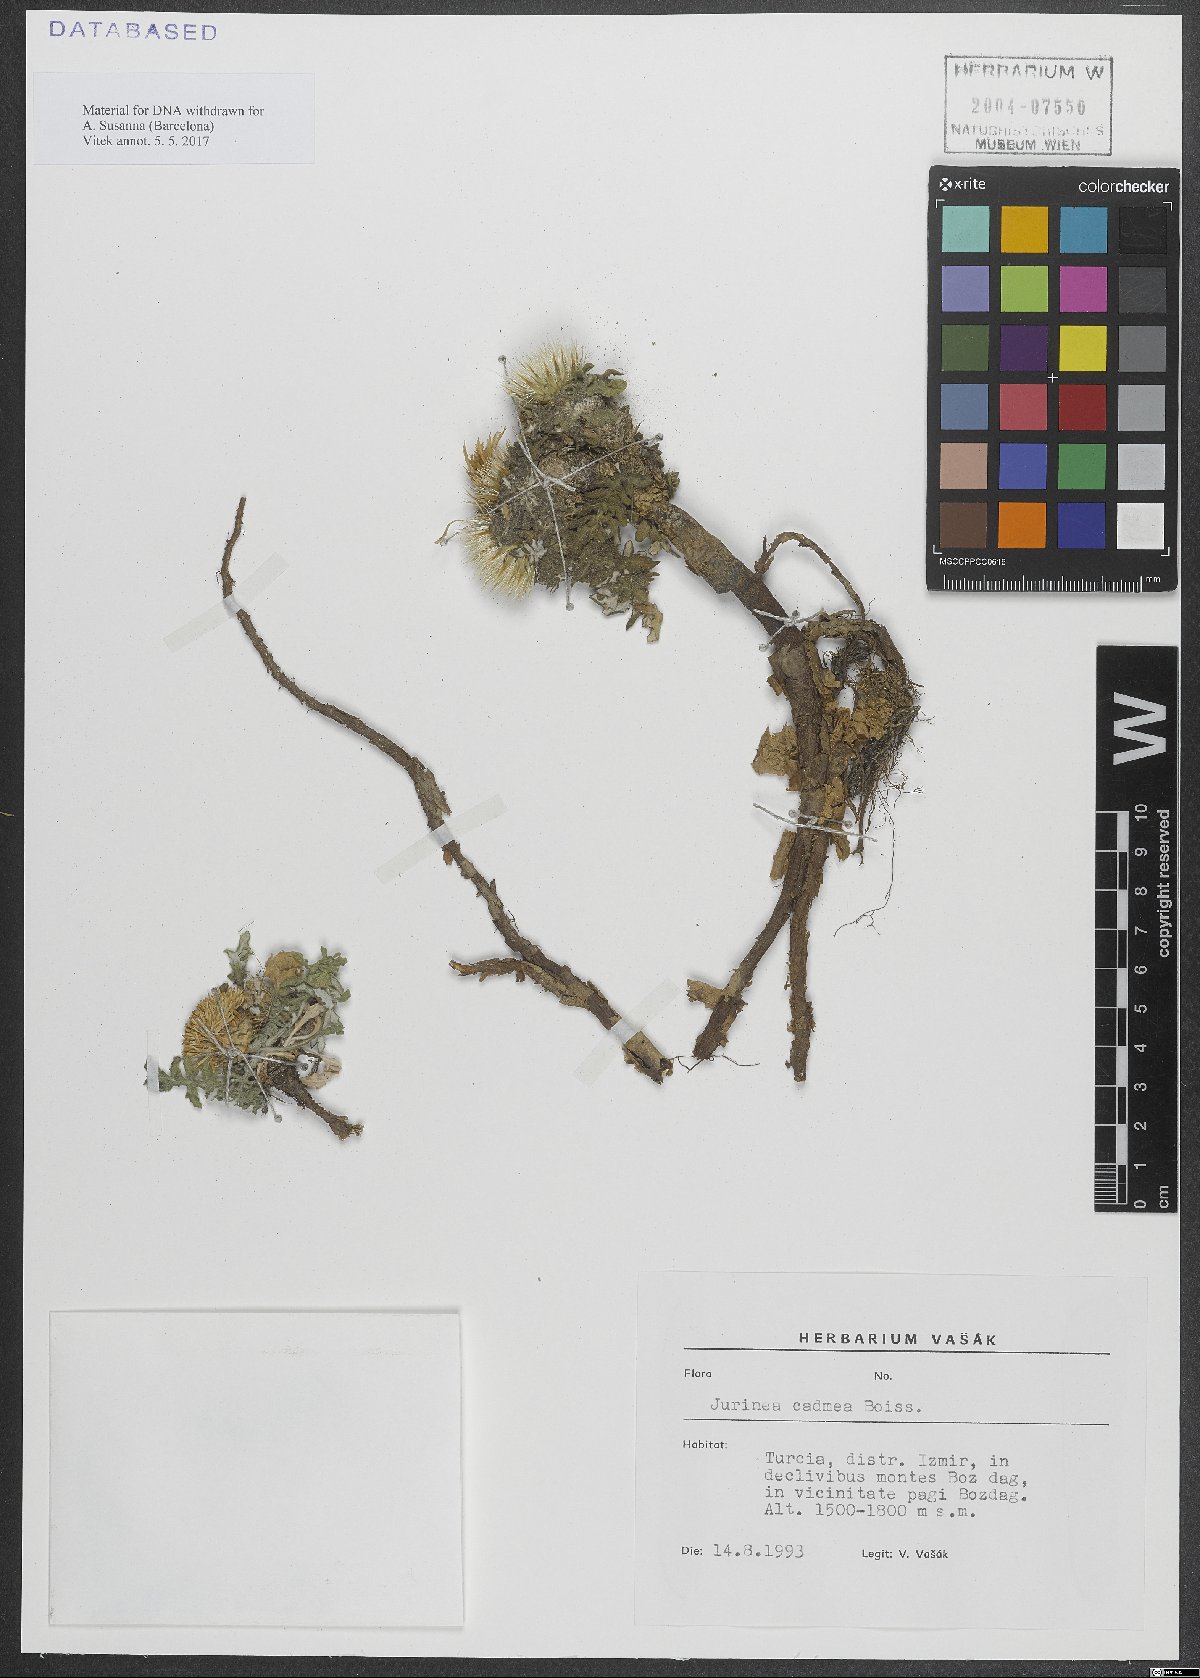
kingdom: Plantae
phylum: Tracheophyta
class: Magnoliopsida
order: Asterales
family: Asteraceae
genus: Jurinea
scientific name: Jurinea cadmea
